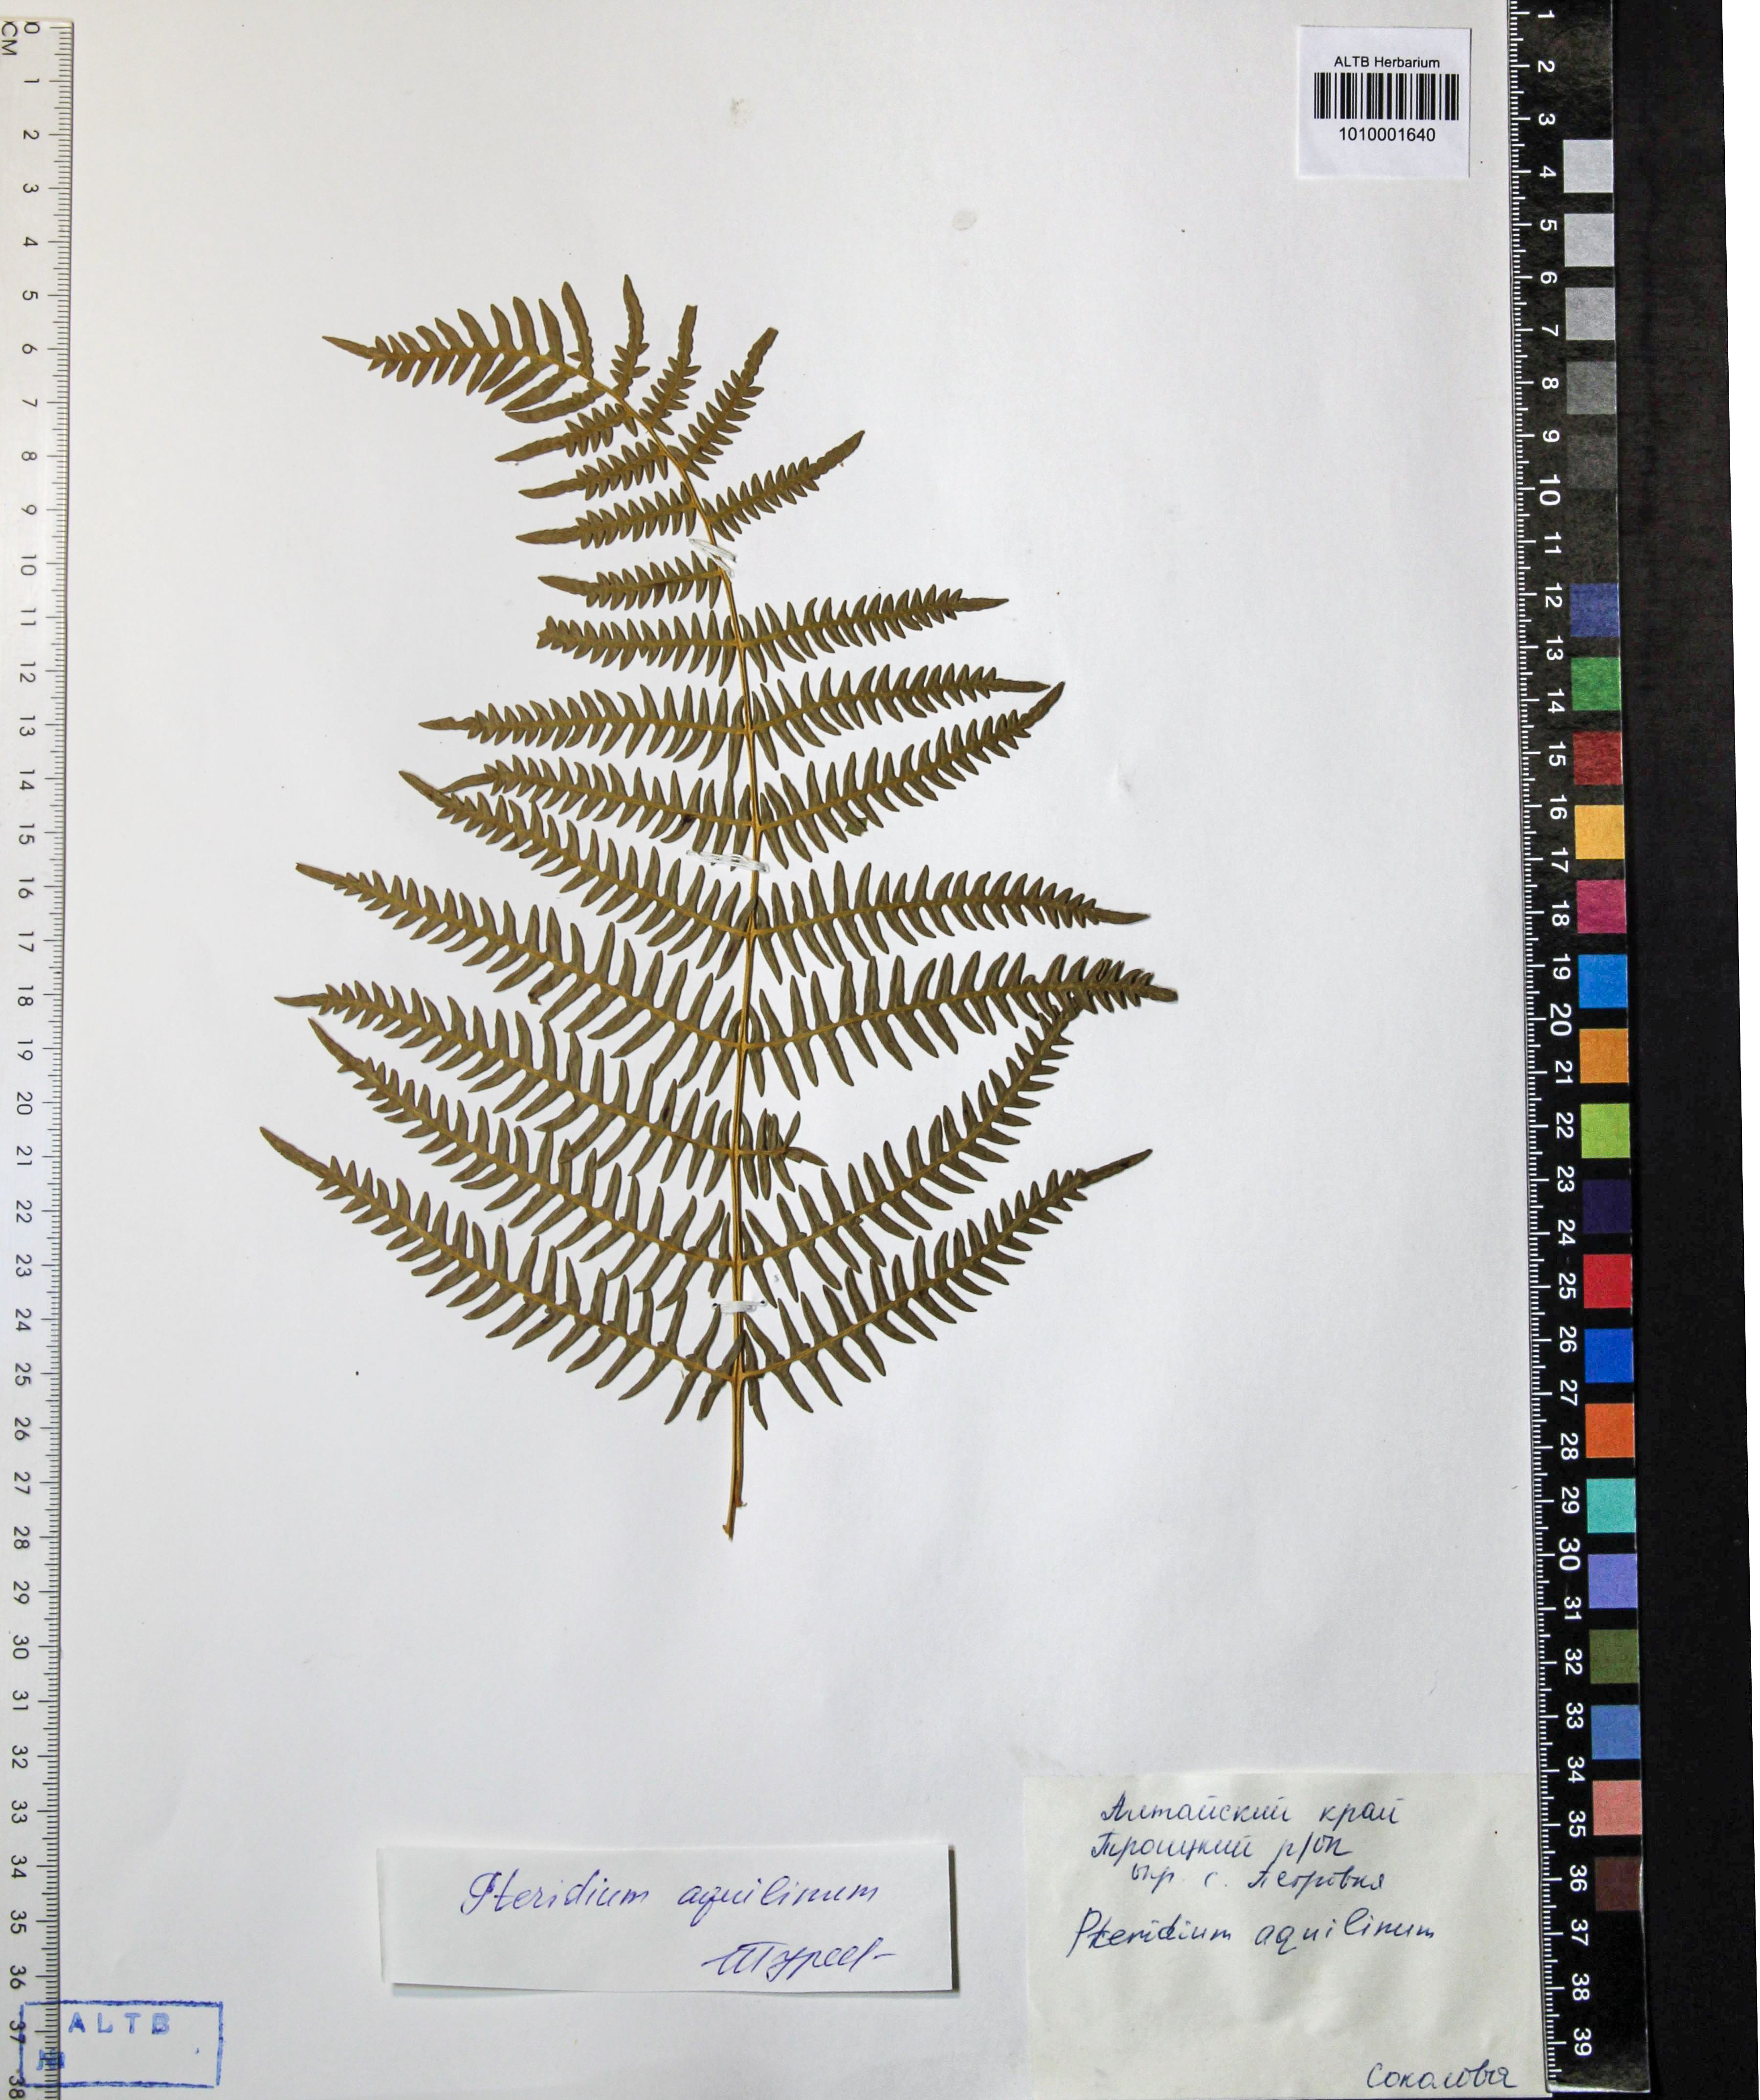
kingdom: Plantae
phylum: Tracheophyta
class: Polypodiopsida
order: Polypodiales
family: Dennstaedtiaceae
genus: Pteridium
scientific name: Pteridium aquilinum
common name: Bracken
